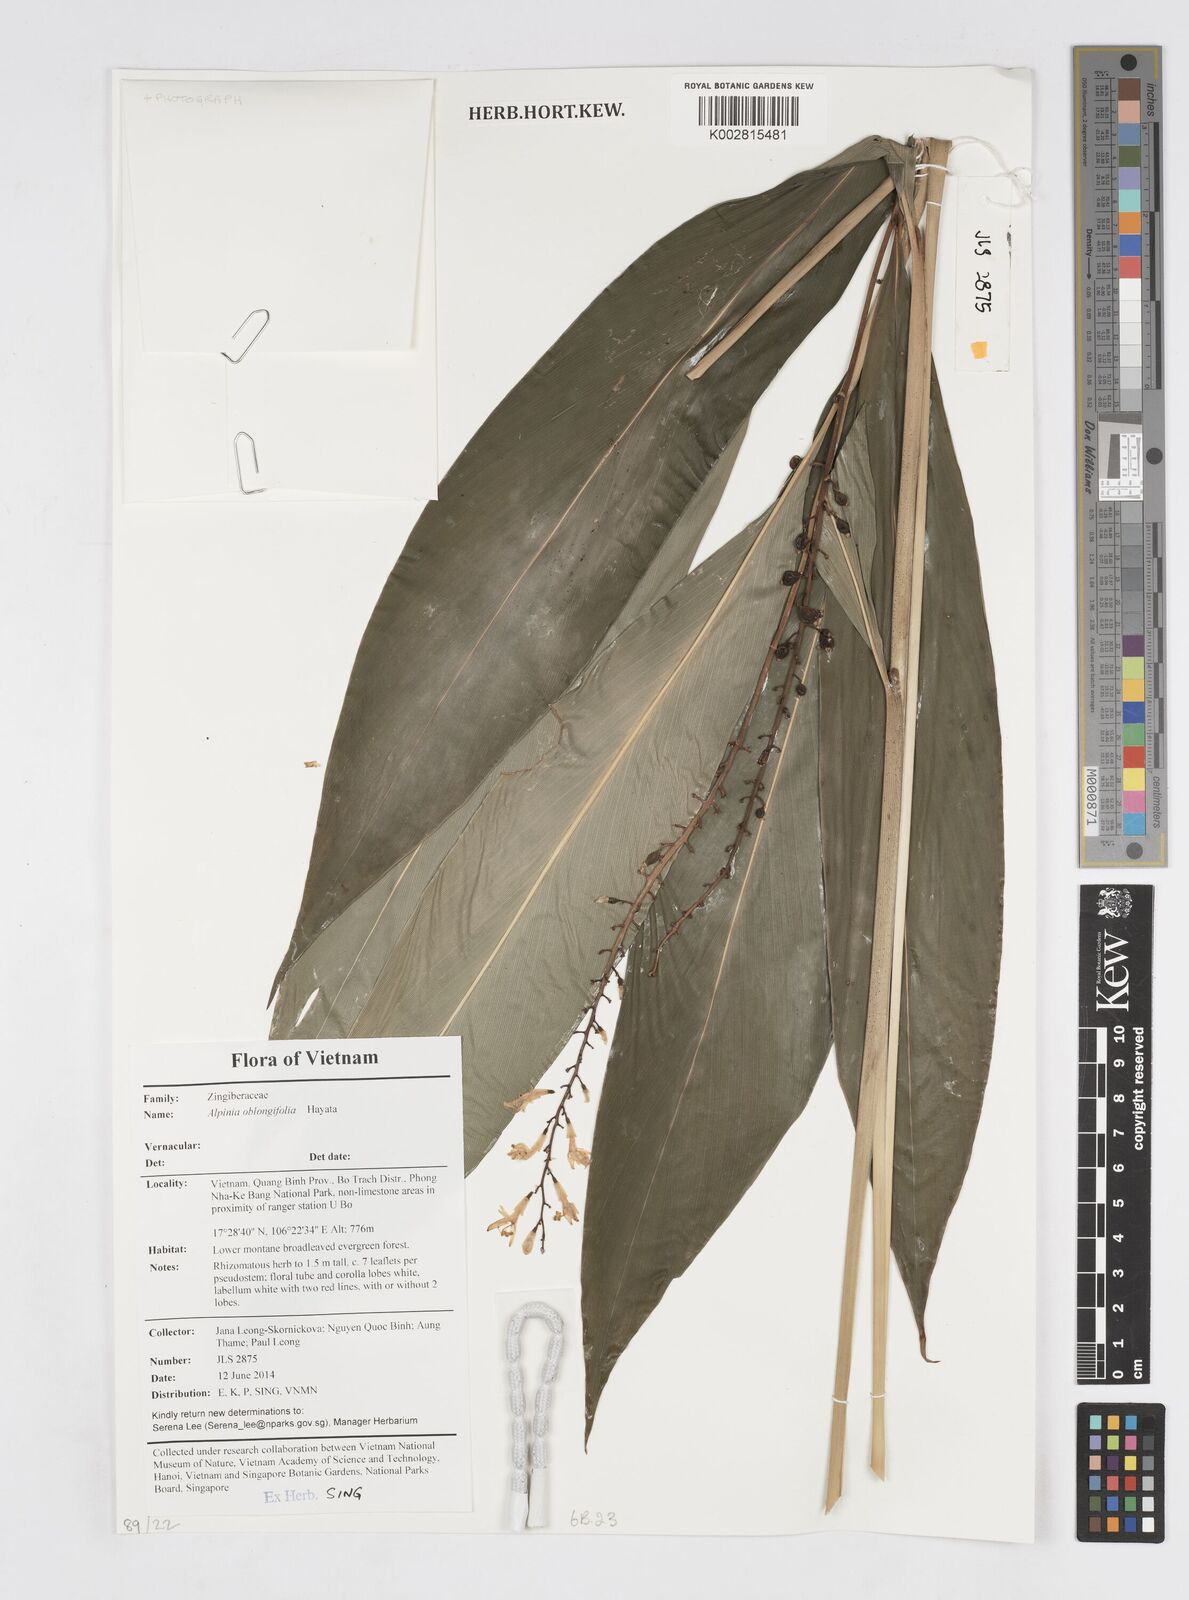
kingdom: Plantae
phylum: Tracheophyta
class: Liliopsida
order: Zingiberales
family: Zingiberaceae
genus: Alpinia
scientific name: Alpinia oblongifolia
